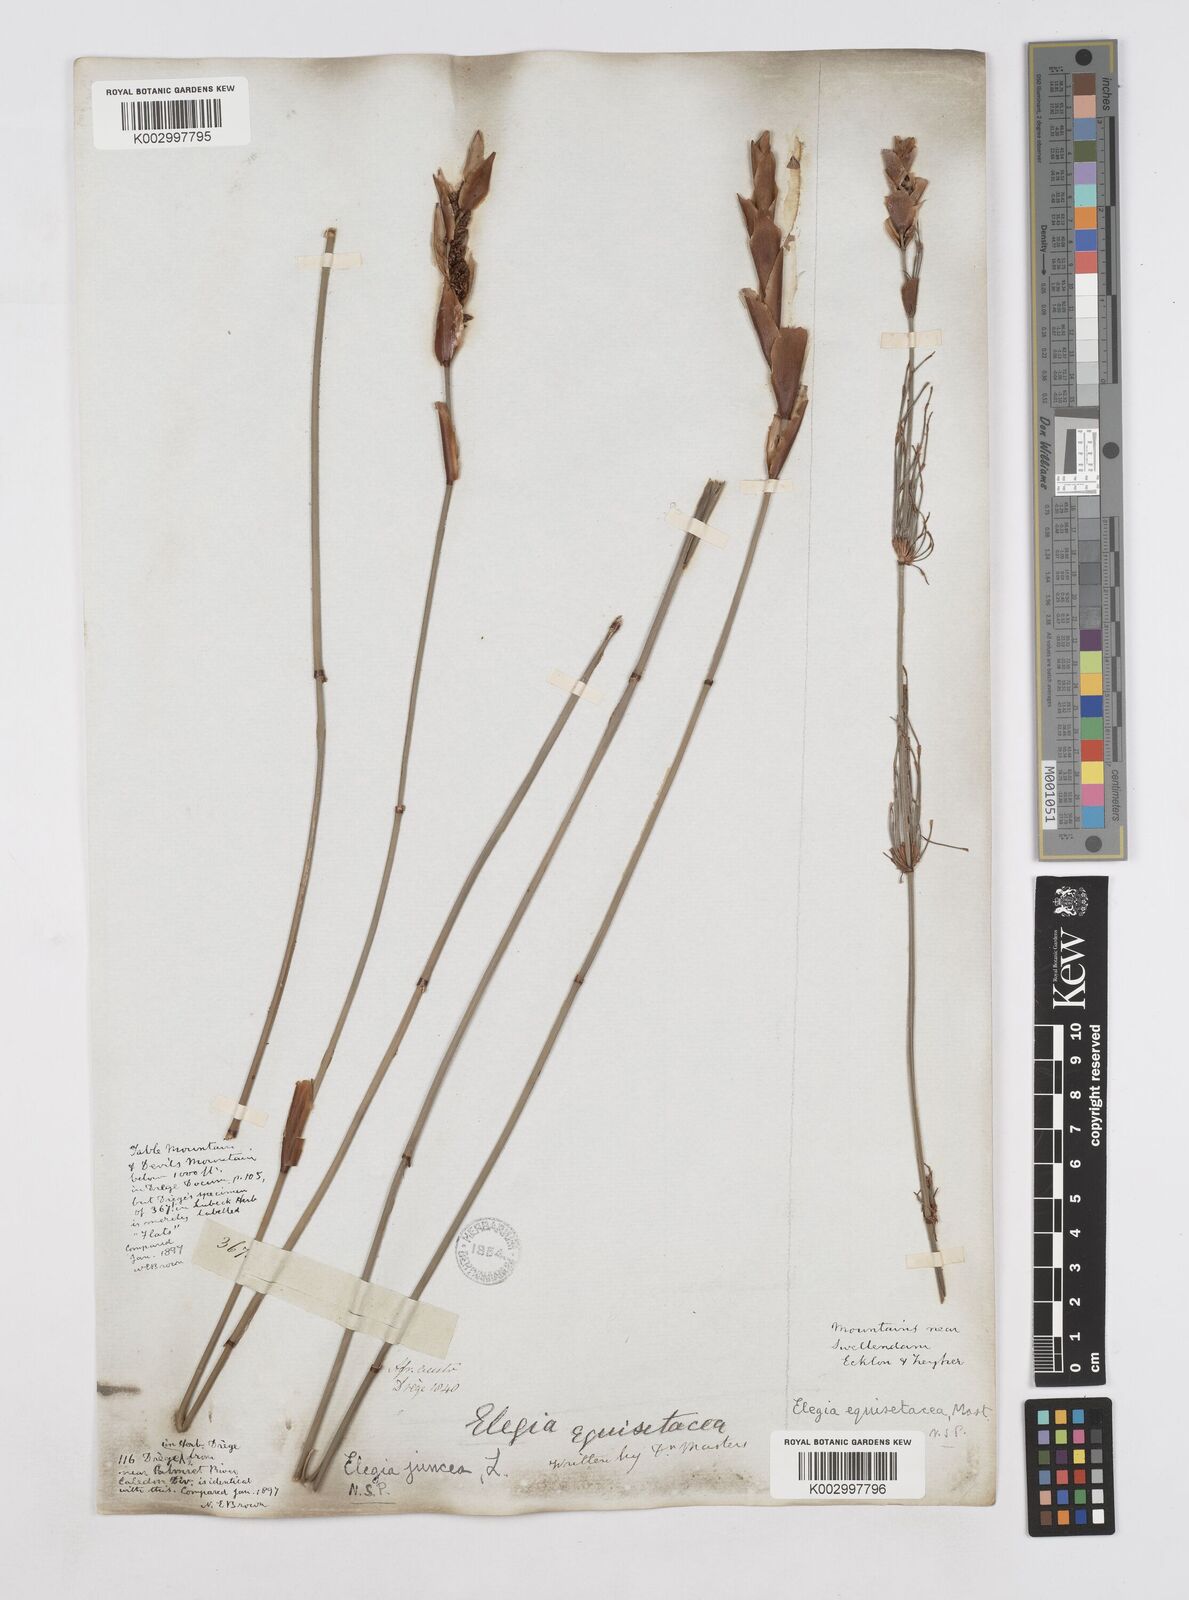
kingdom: Plantae
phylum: Tracheophyta
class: Liliopsida
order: Poales
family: Restionaceae
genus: Elegia
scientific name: Elegia juncea
